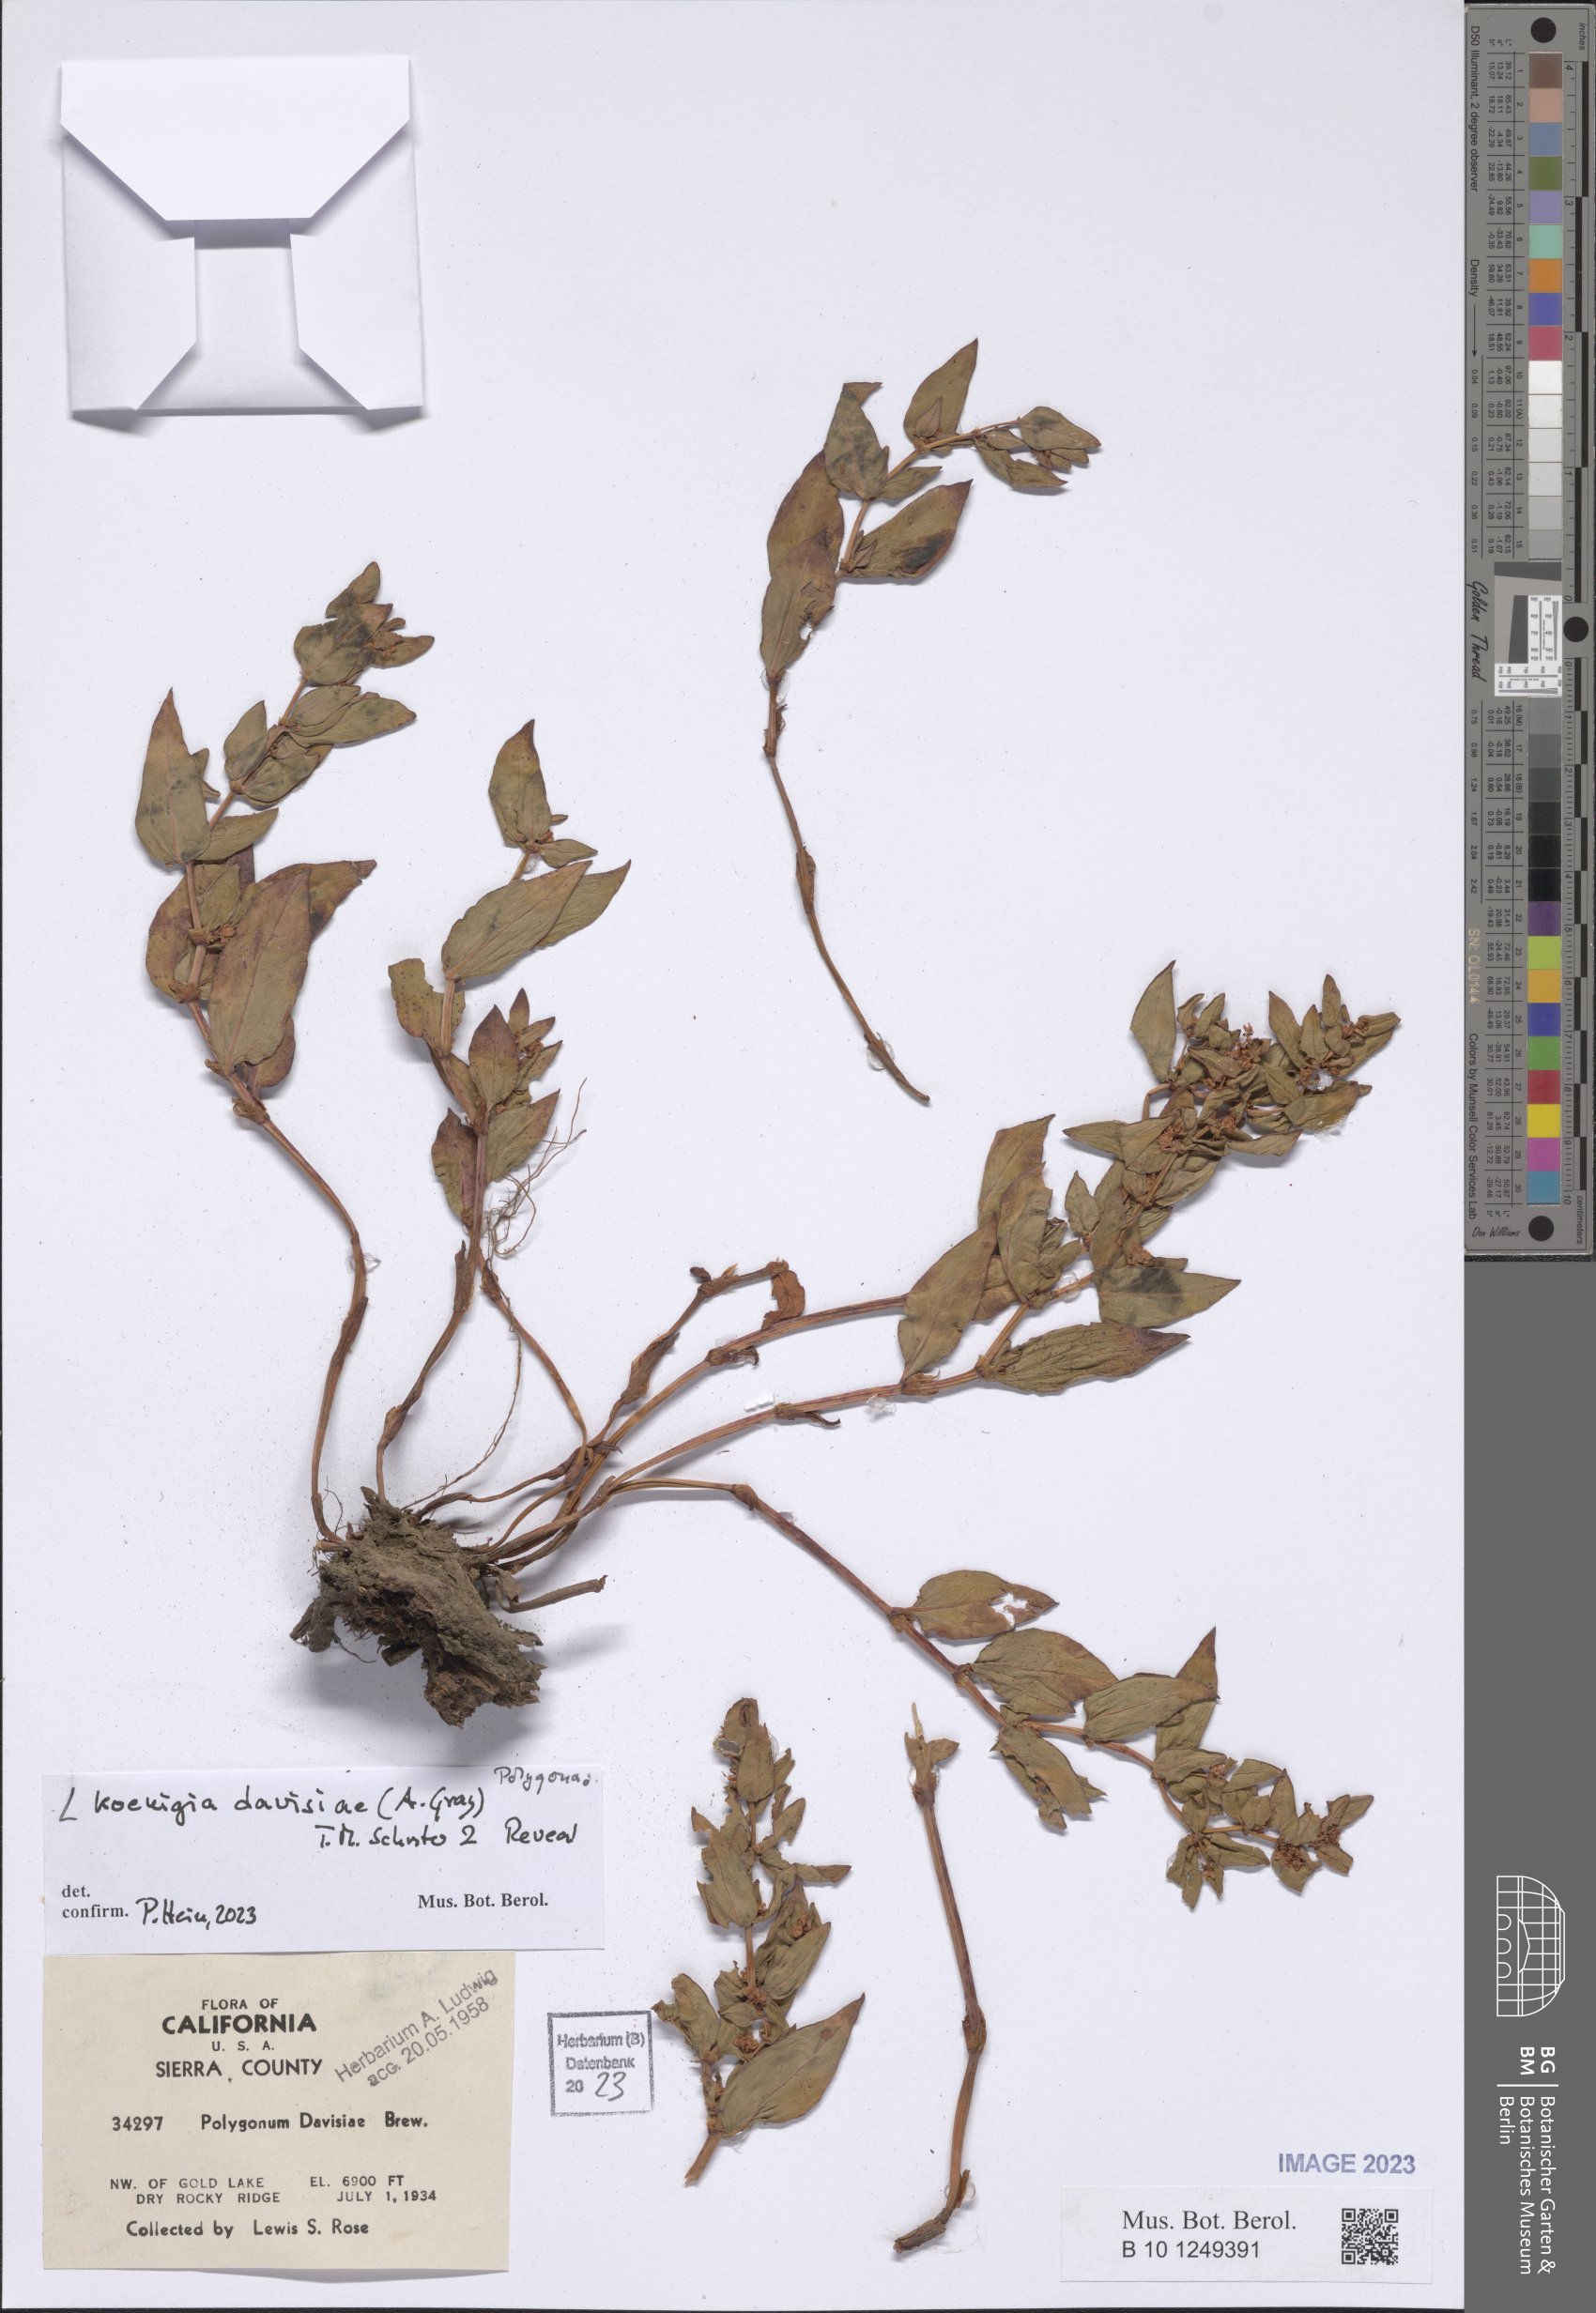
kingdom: Plantae
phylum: Tracheophyta
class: Magnoliopsida
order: Caryophyllales
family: Polygonaceae
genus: Koenigia
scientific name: Koenigia davisiae
